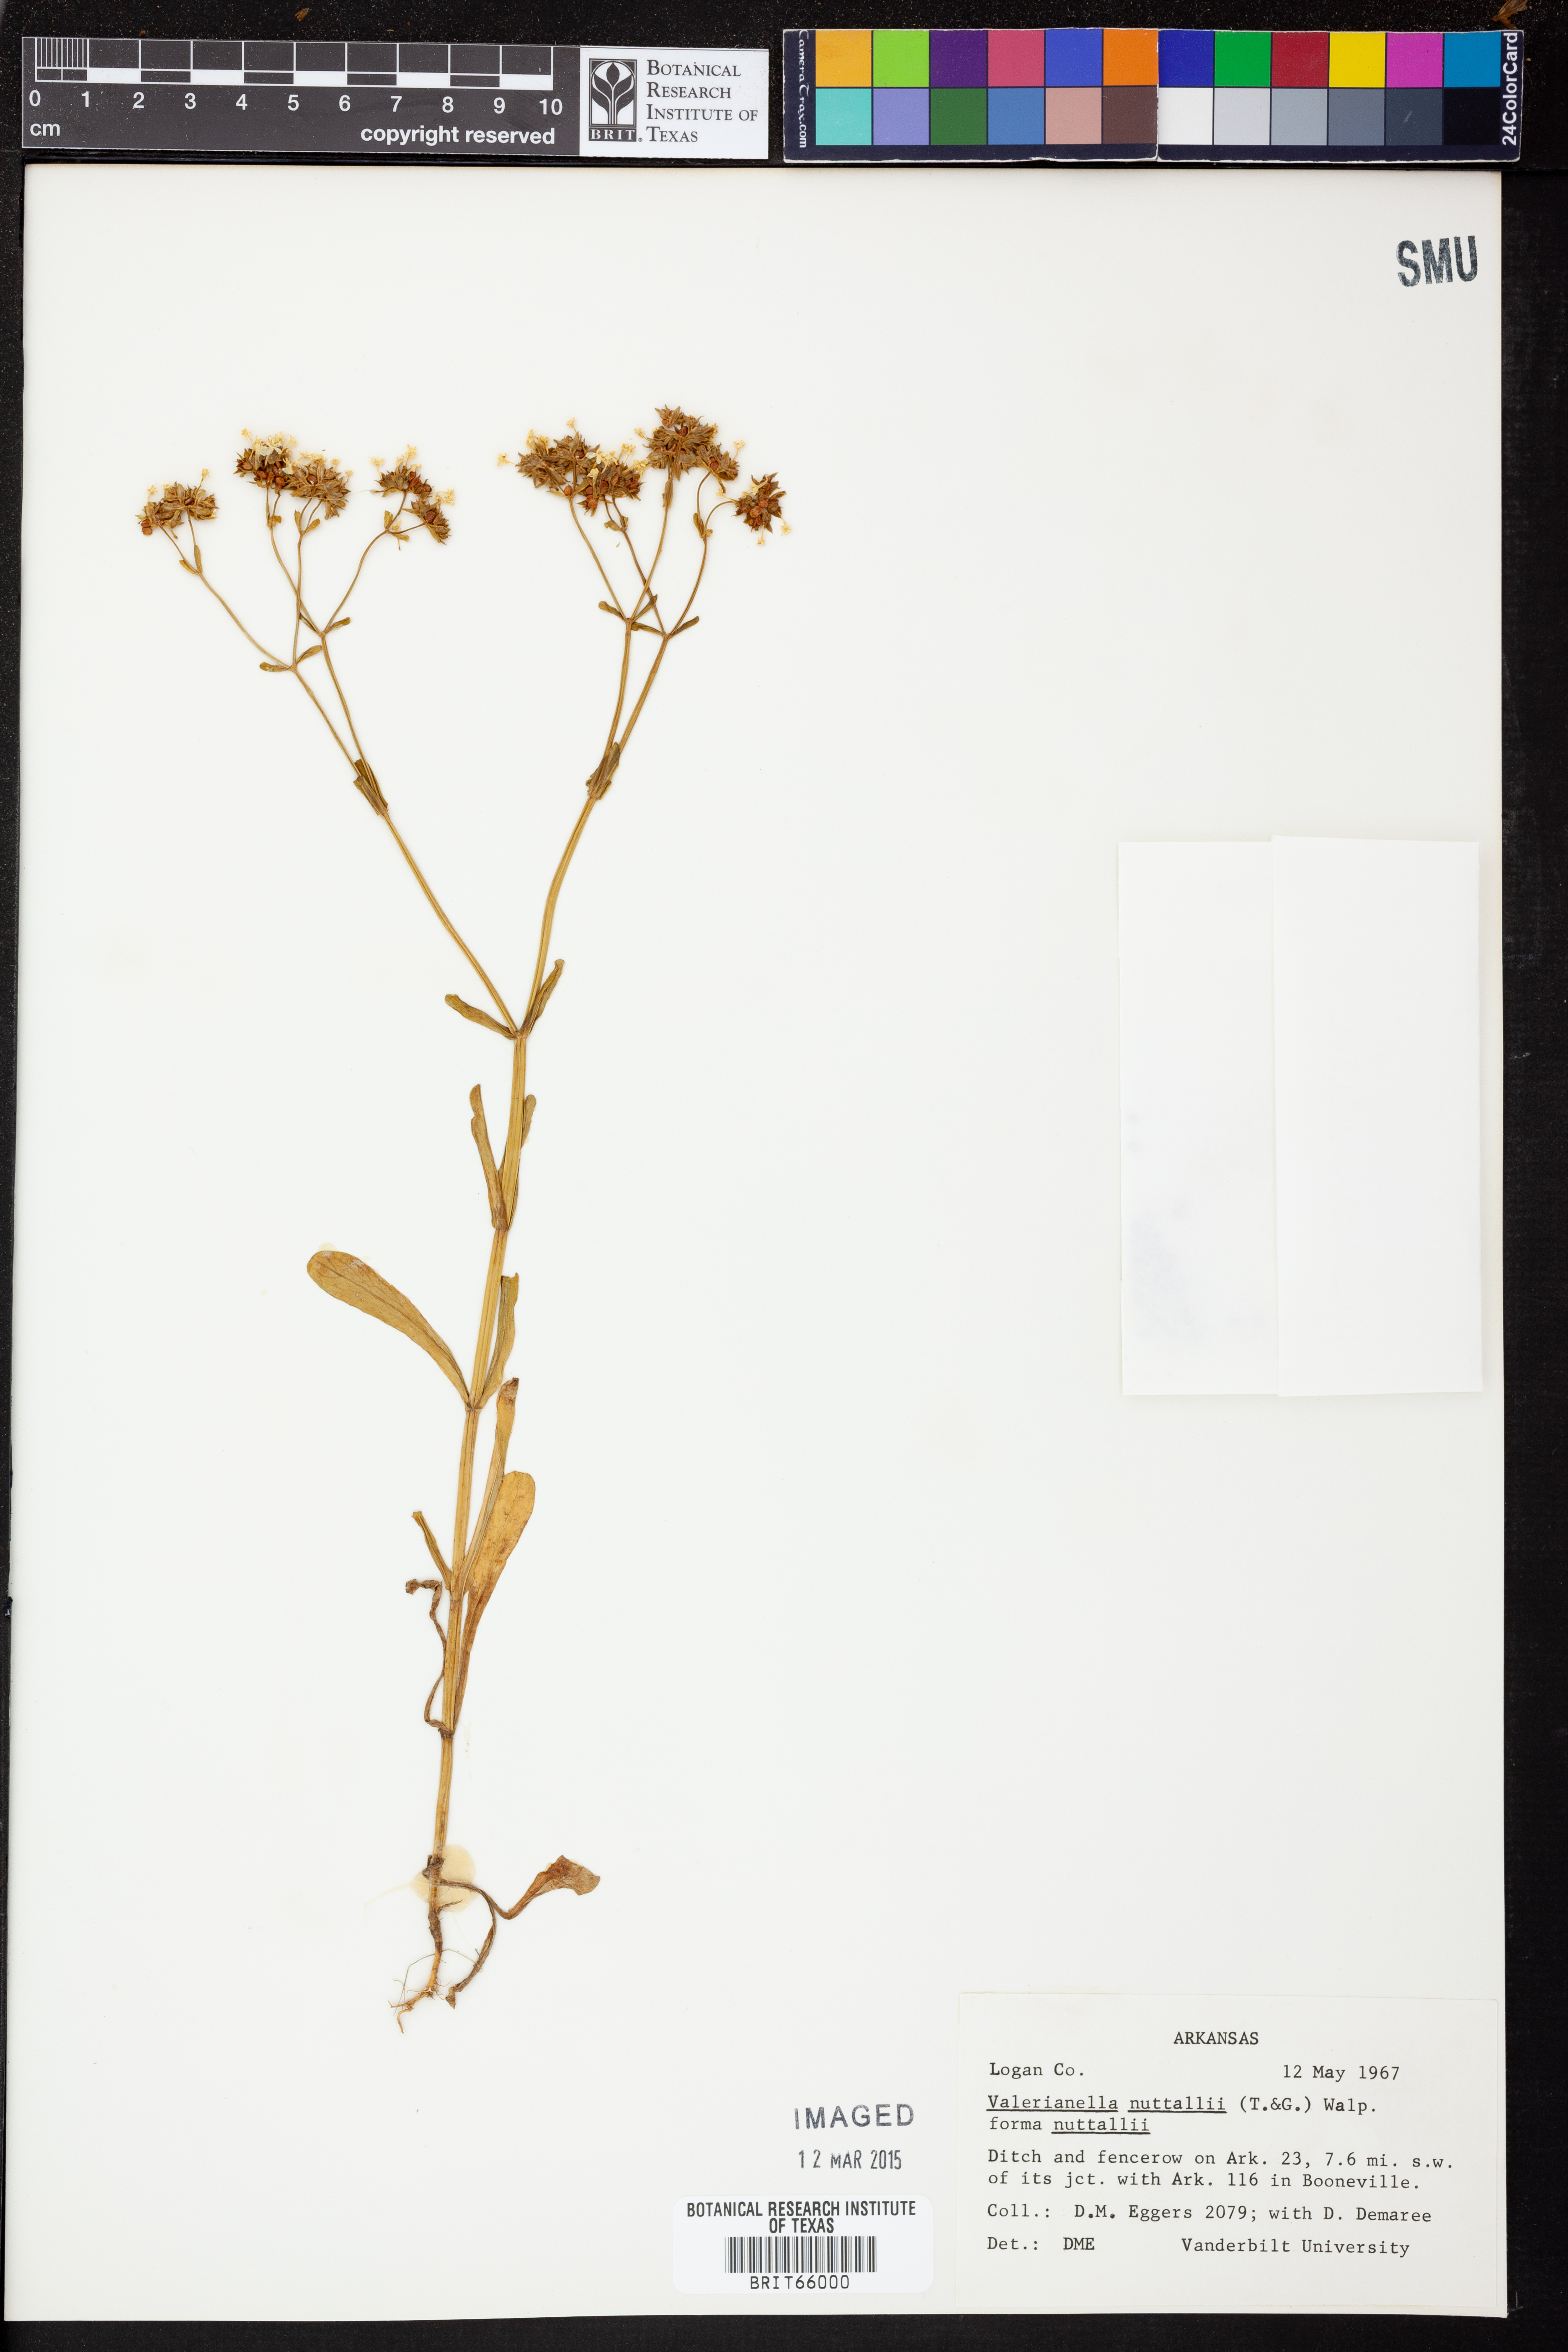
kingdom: Plantae
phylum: Tracheophyta
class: Magnoliopsida
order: Dipsacales
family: Caprifoliaceae
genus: Valerianella
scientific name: Valerianella nuttallii
